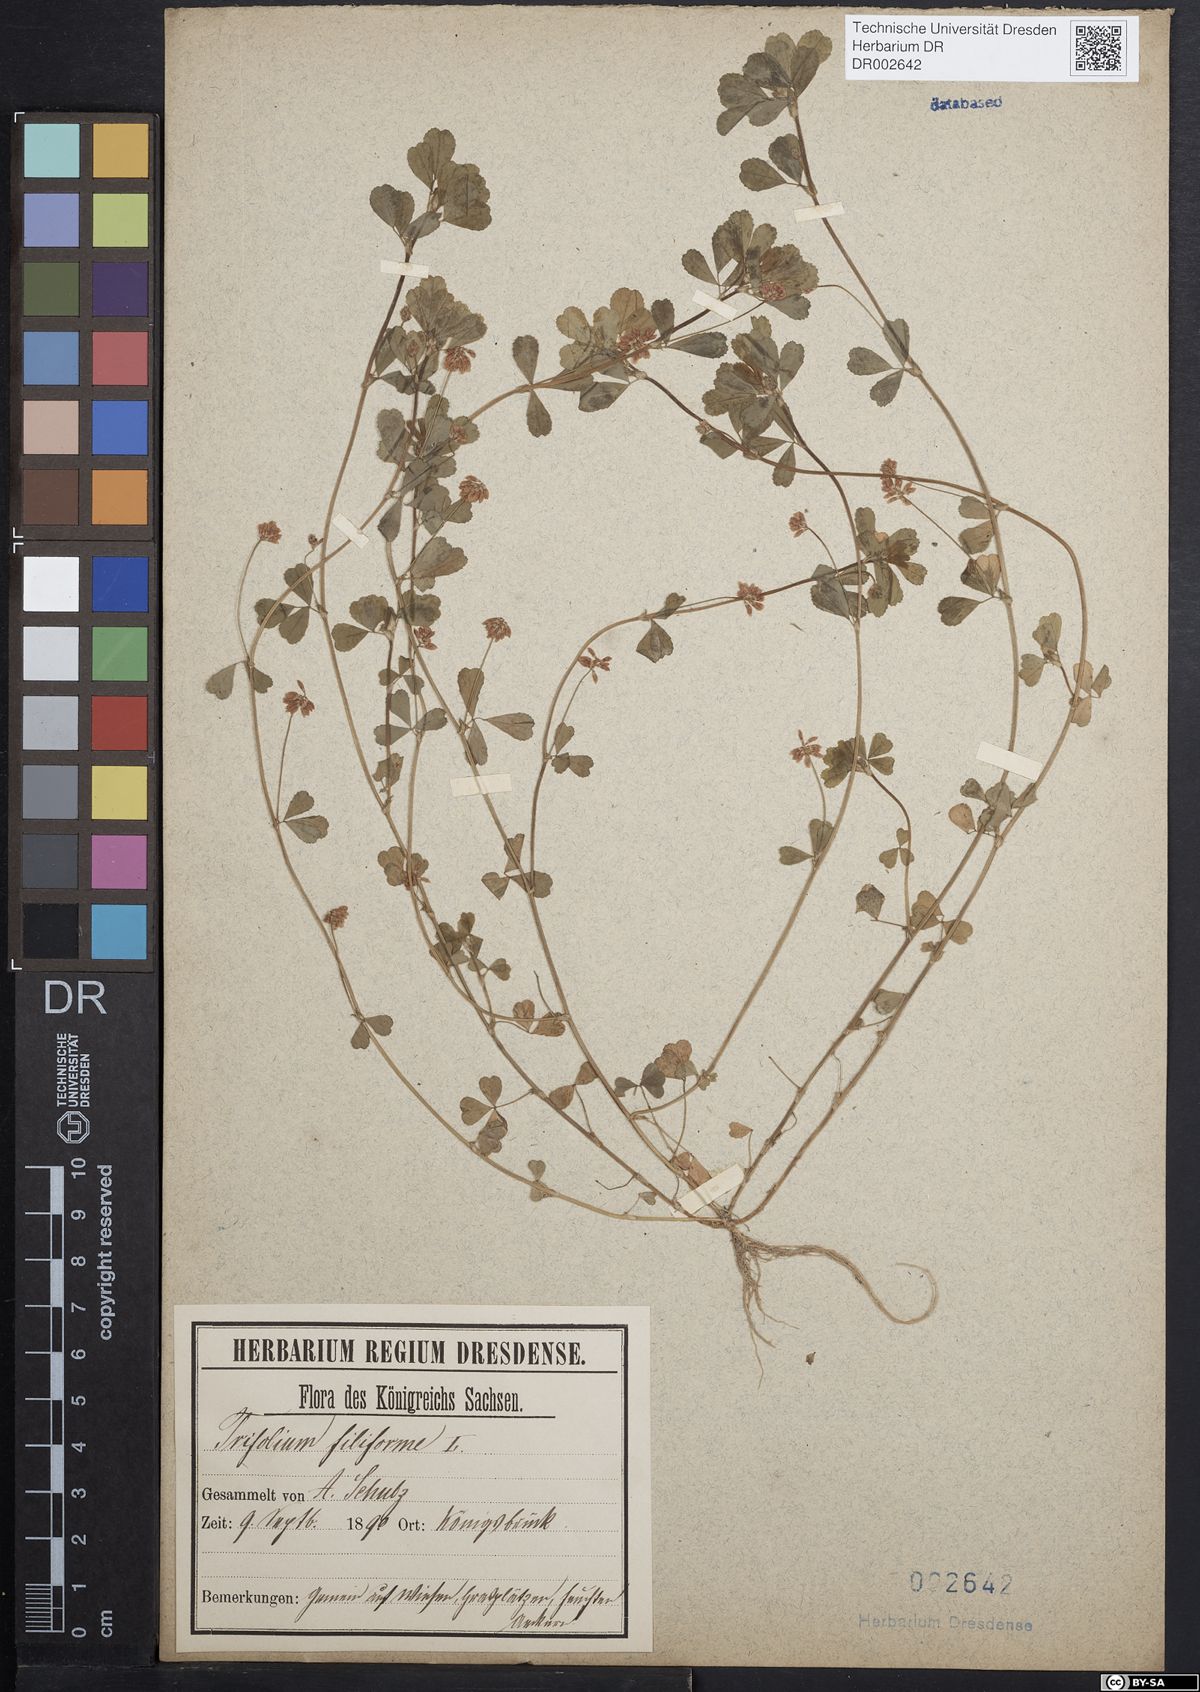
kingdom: Plantae
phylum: Tracheophyta
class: Magnoliopsida
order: Fabales
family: Fabaceae
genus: Trifolium
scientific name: Trifolium dubium
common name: Suckling clover
